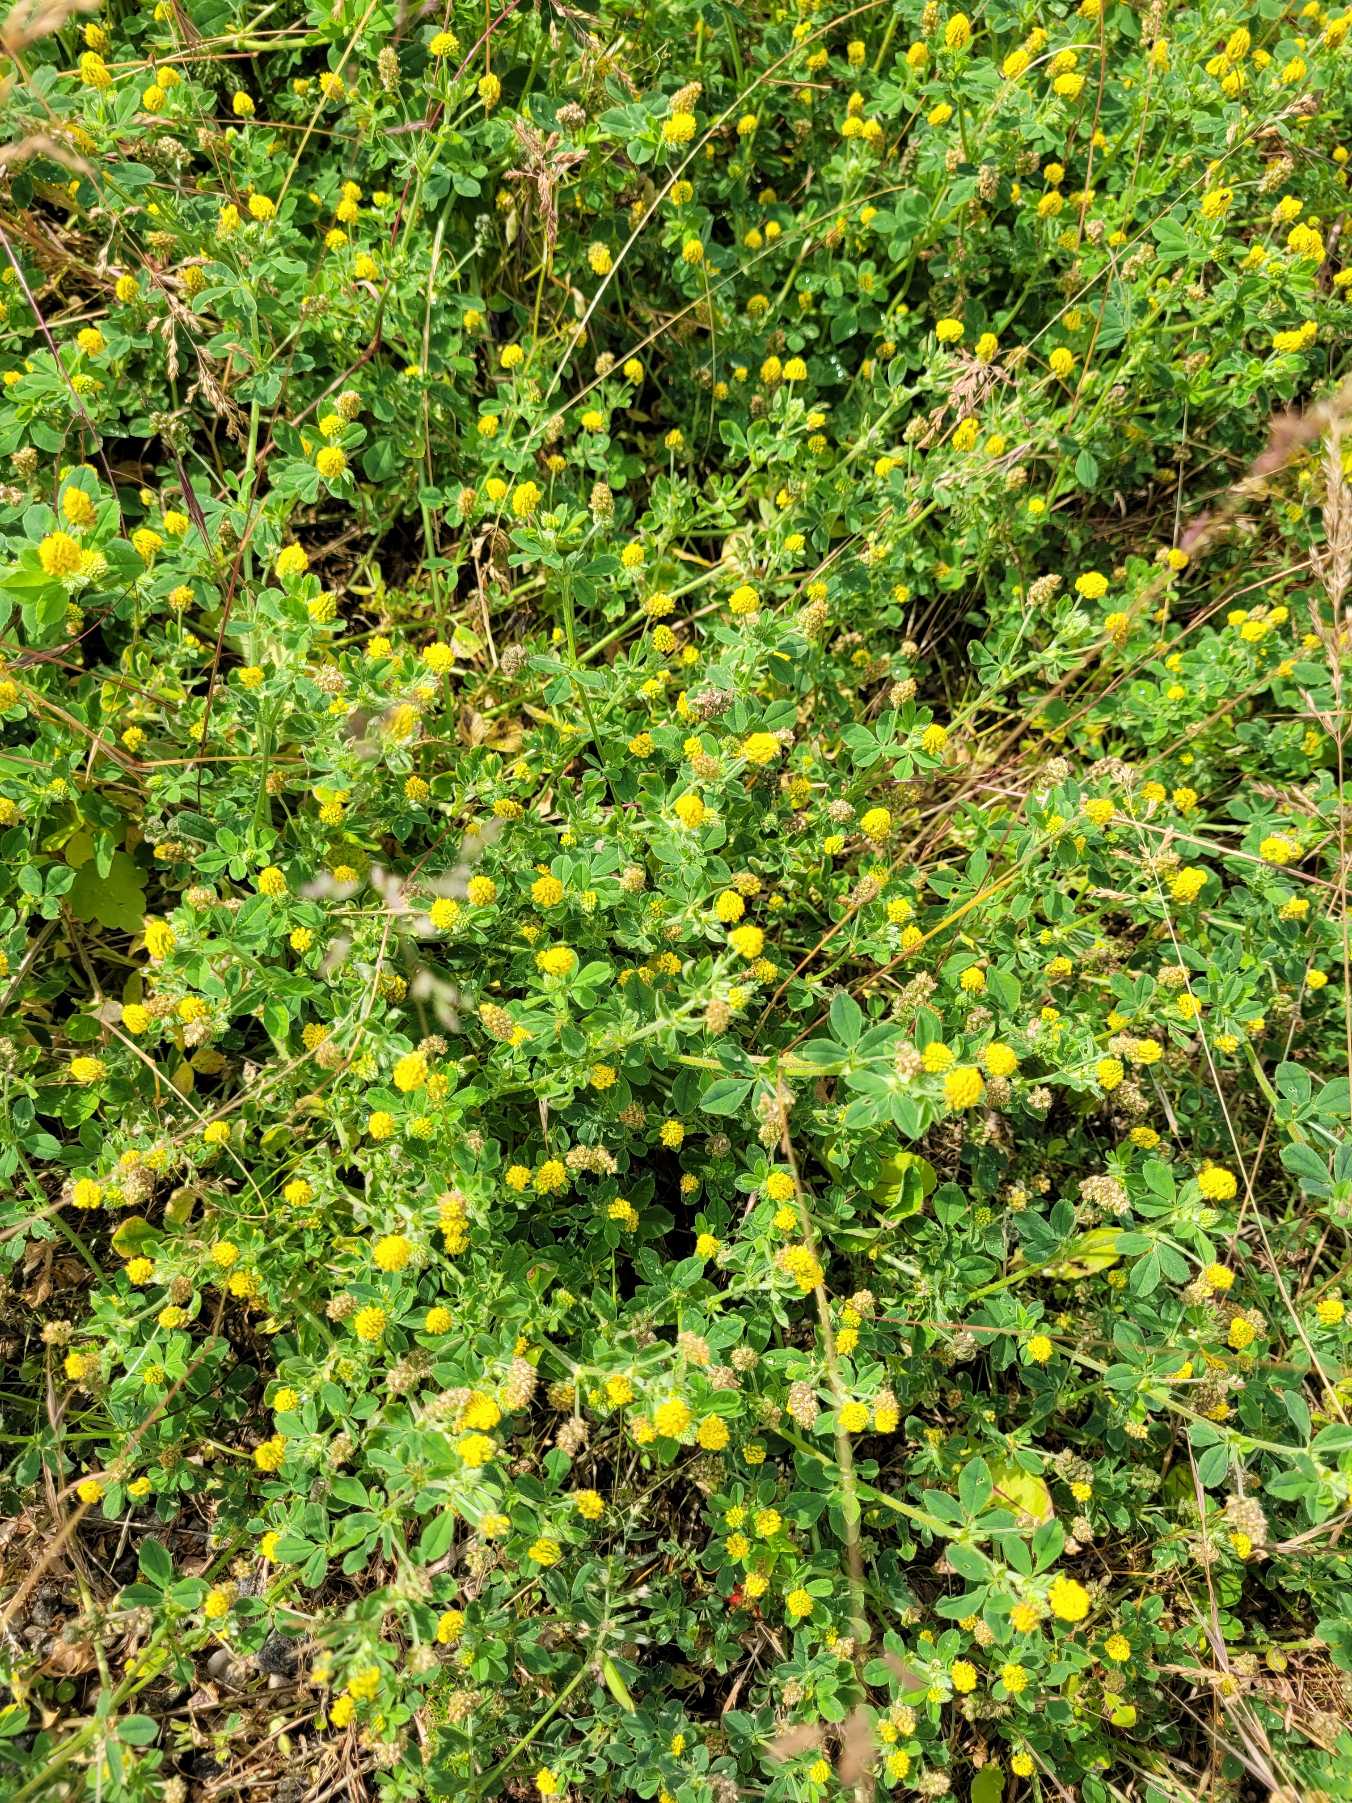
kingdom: Plantae
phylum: Tracheophyta
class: Magnoliopsida
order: Fabales
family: Fabaceae
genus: Medicago
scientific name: Medicago lupulina
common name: Humle-sneglebælg
